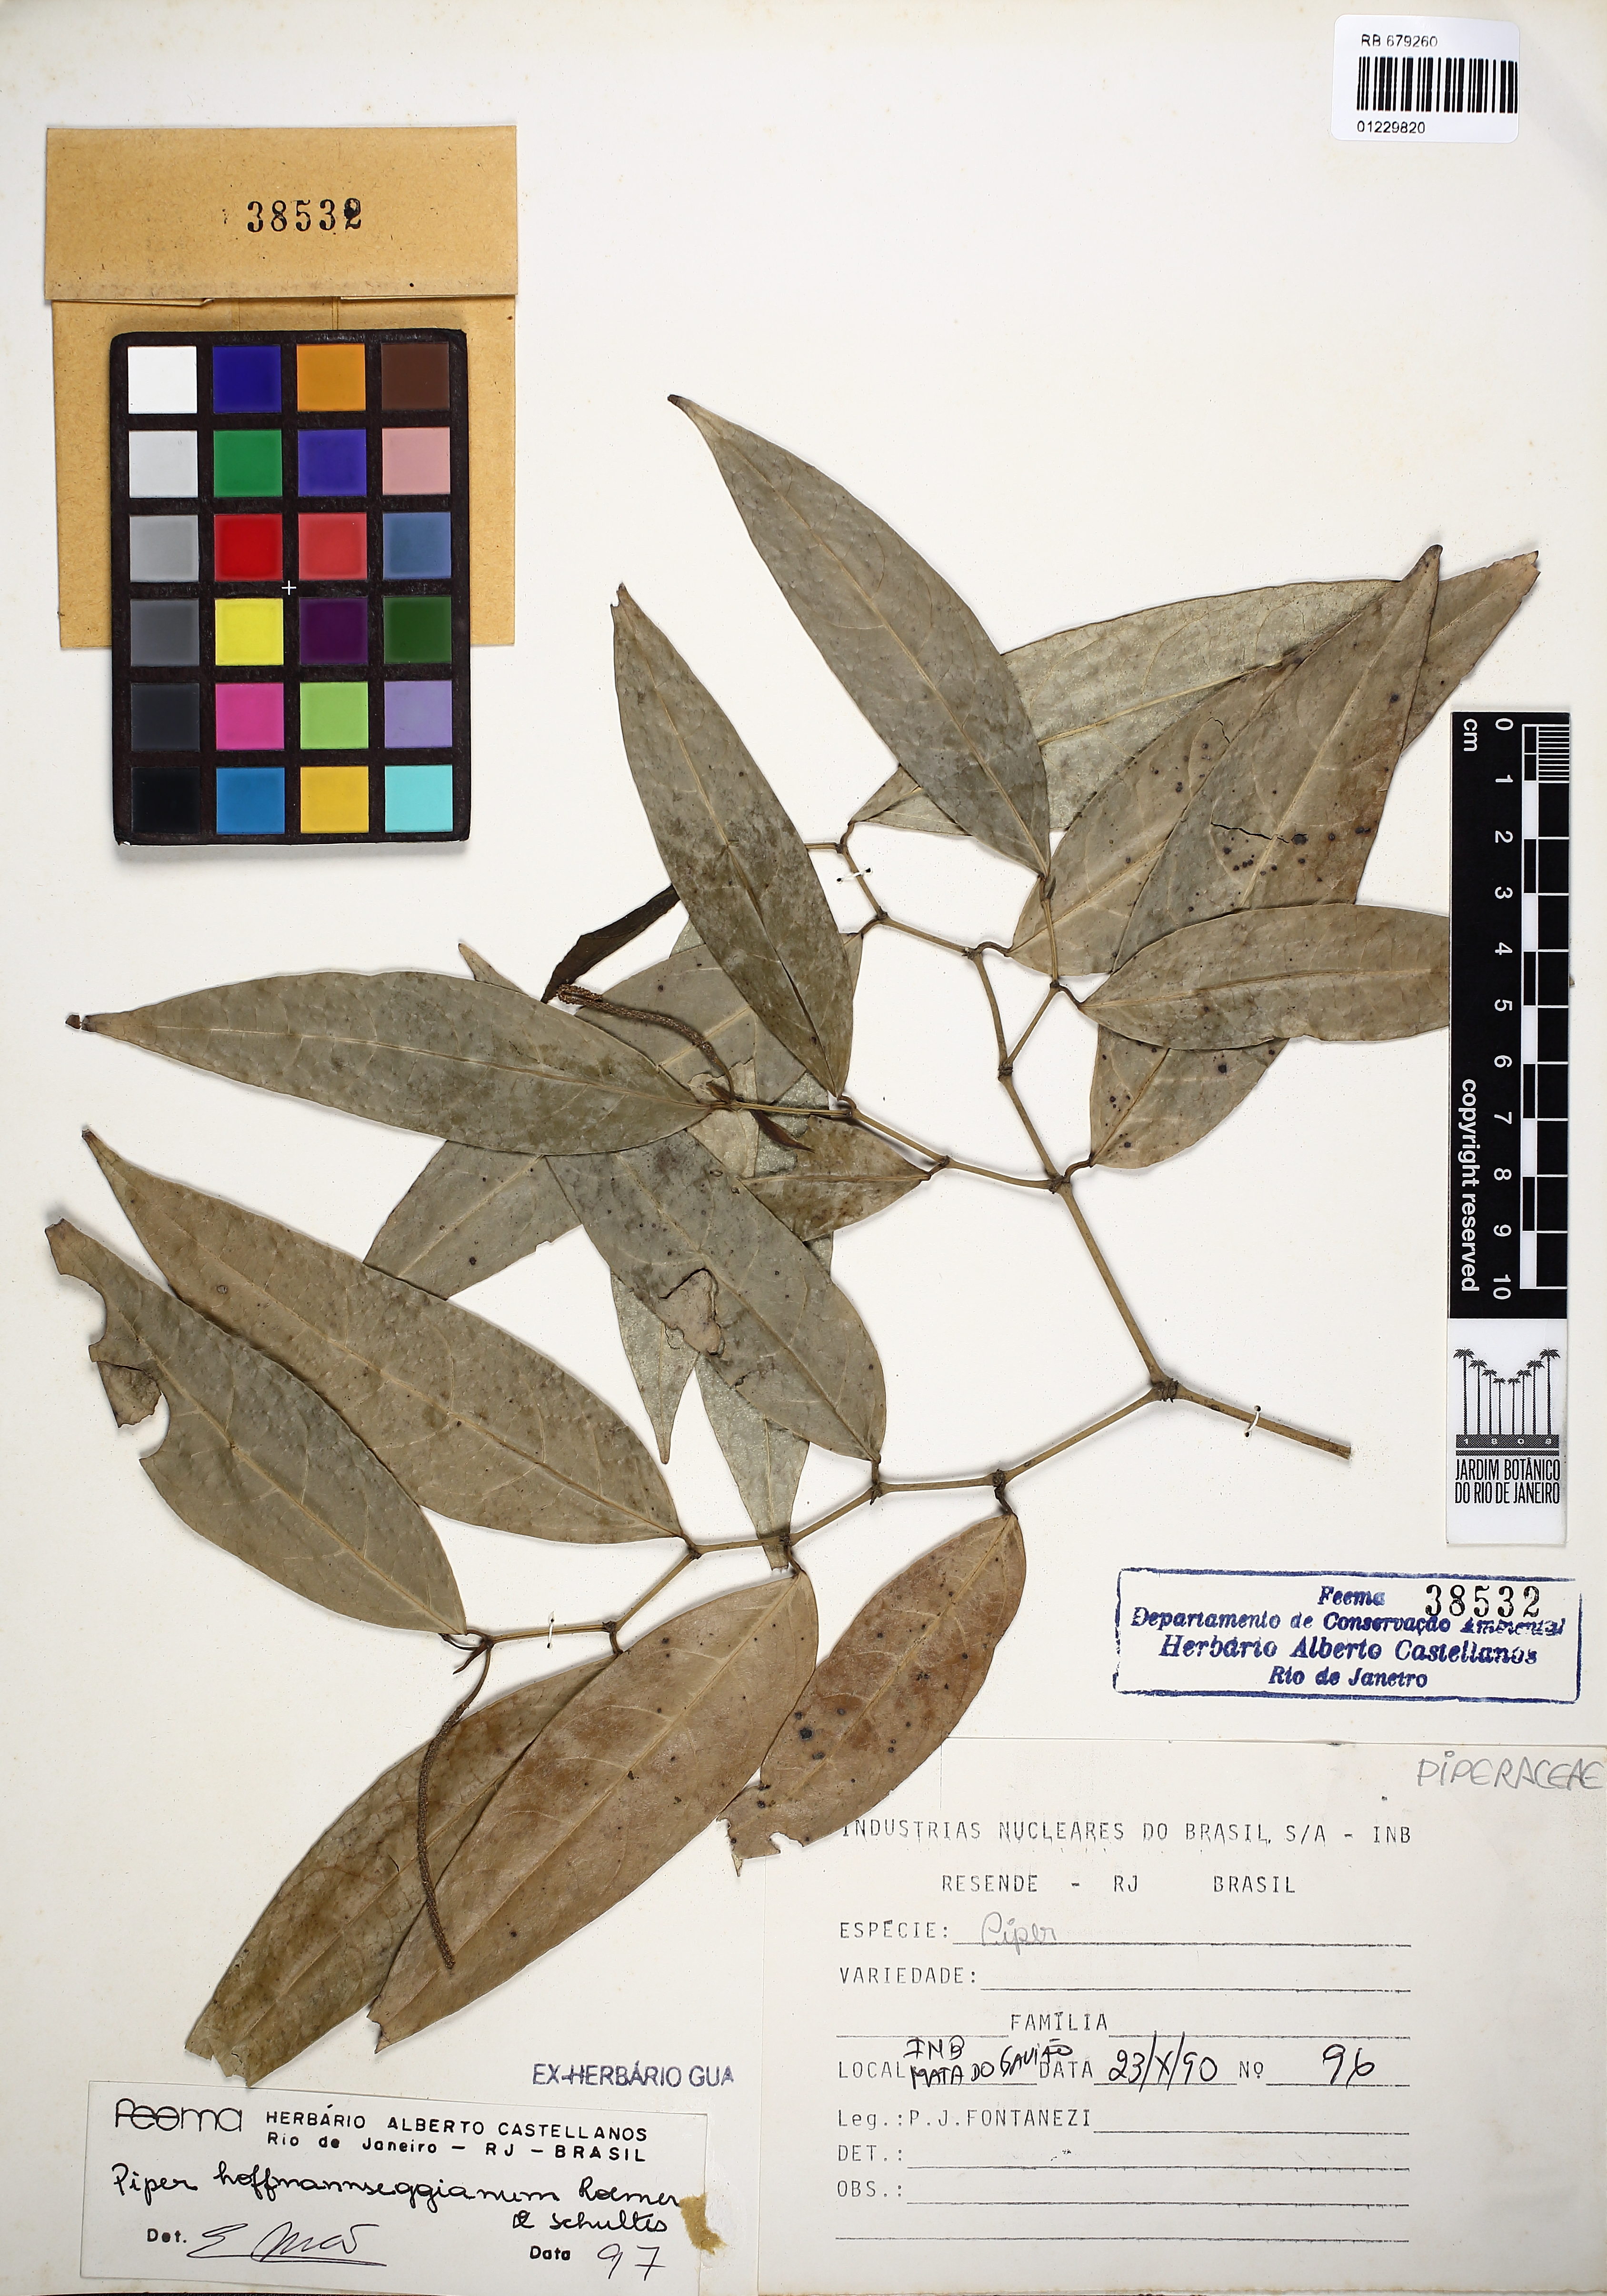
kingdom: Plantae
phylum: Tracheophyta
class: Magnoliopsida
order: Piperales
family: Piperaceae
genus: Piper
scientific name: Piper hoffmannseggianum
